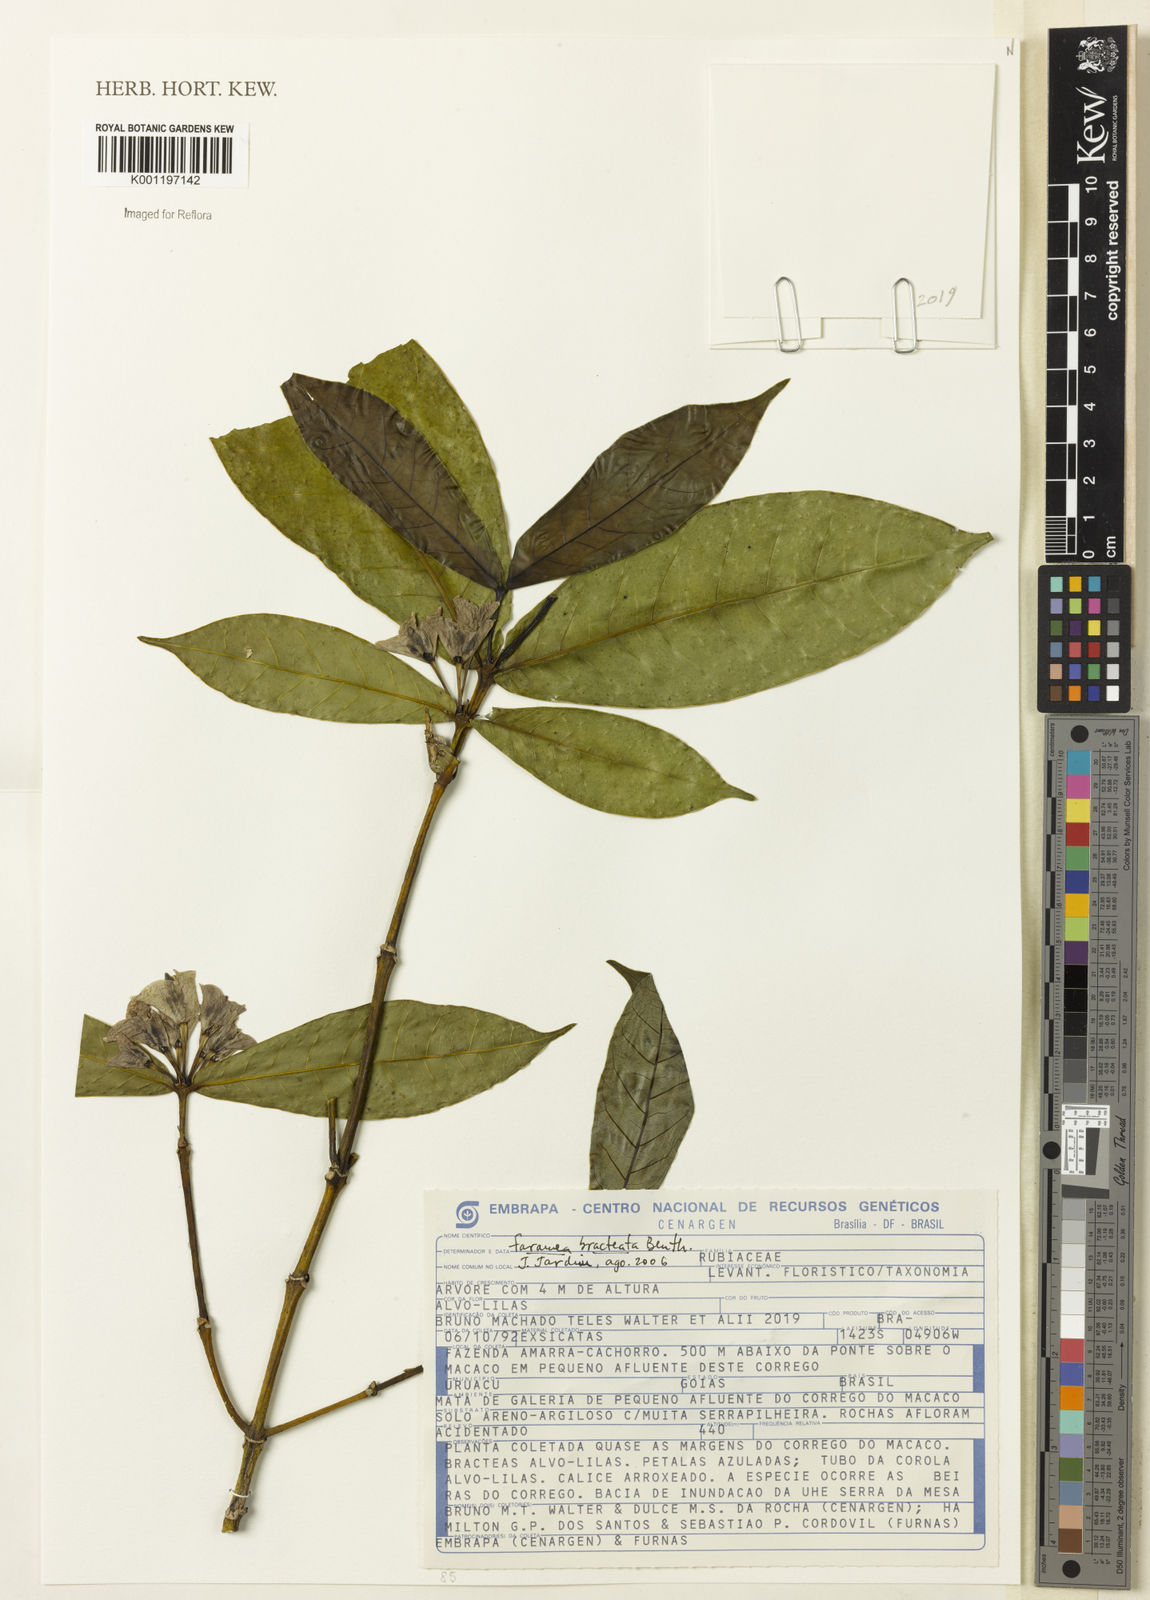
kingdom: Plantae
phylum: Tracheophyta
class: Magnoliopsida
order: Gentianales
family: Rubiaceae
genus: Faramea
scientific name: Faramea bracteata
